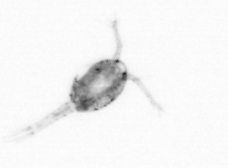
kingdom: Animalia
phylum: Arthropoda
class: Copepoda
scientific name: Copepoda
